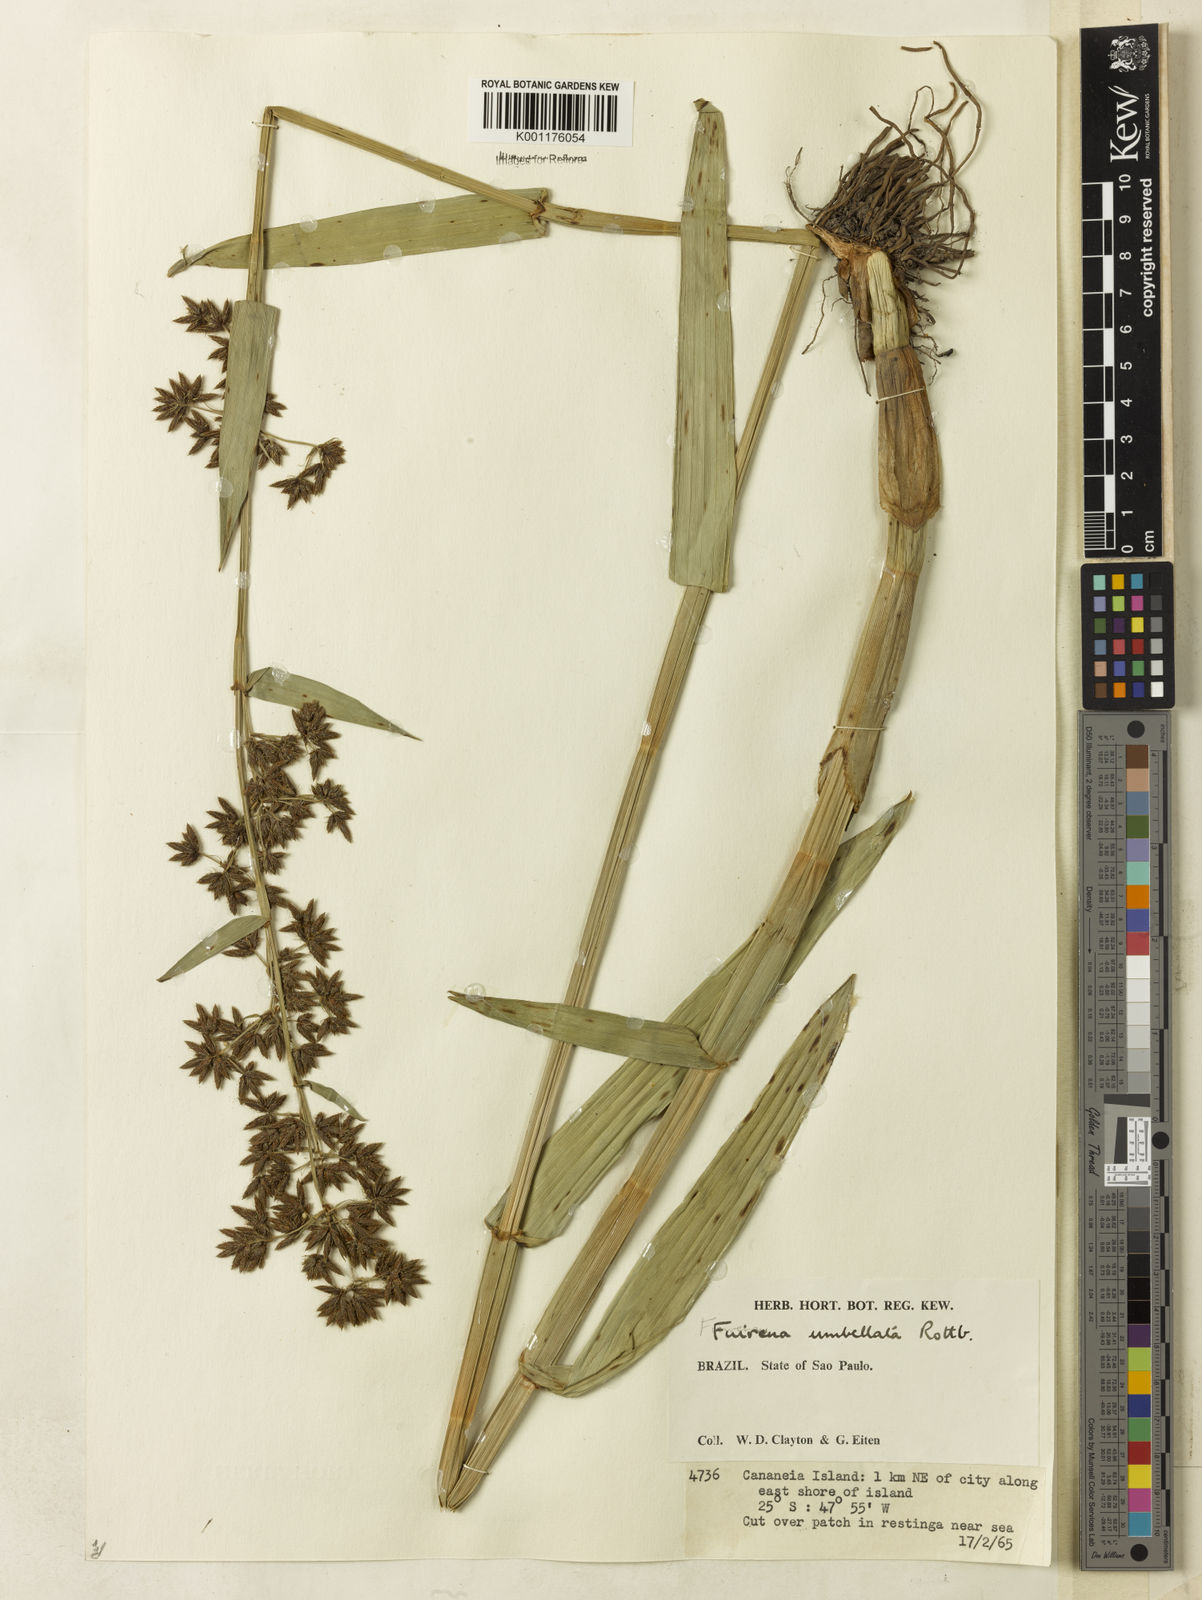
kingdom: Plantae
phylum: Tracheophyta
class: Liliopsida
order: Poales
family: Cyperaceae
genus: Fuirena
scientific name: Fuirena umbellata
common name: Yefen
